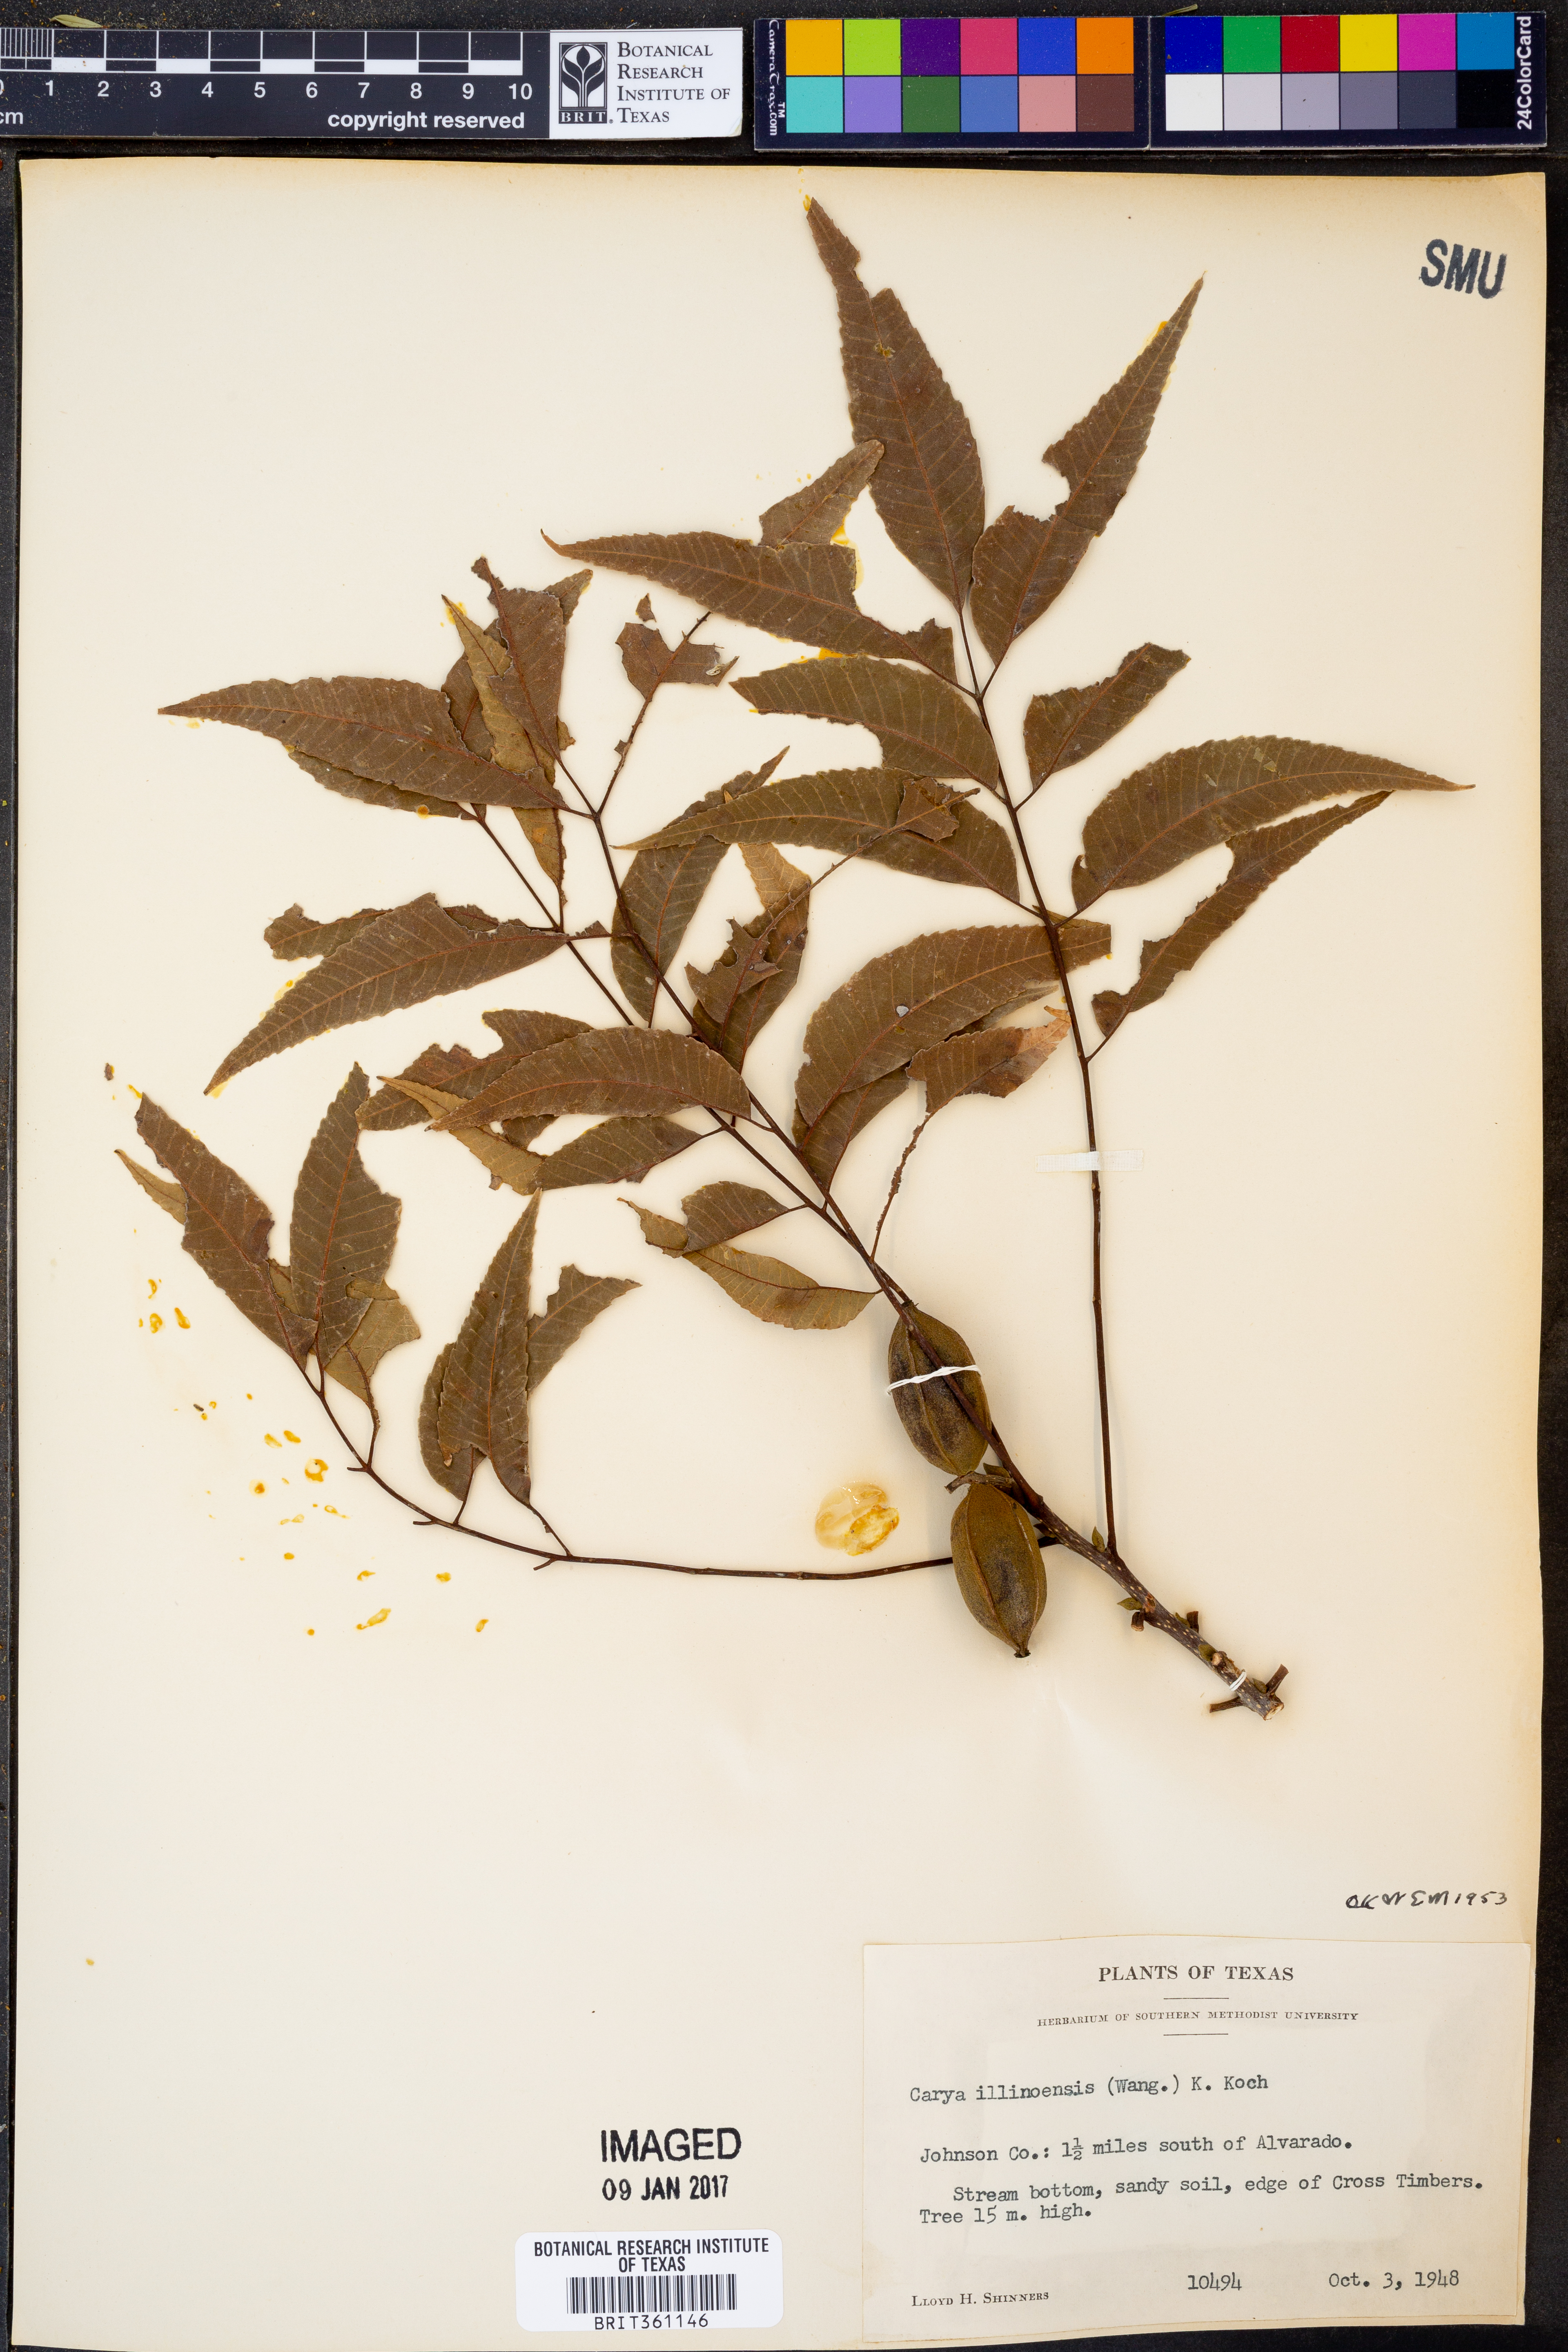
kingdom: Plantae
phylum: Tracheophyta
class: Magnoliopsida
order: Fagales
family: Juglandaceae
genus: Carya
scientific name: Carya illinoinensis
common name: Pecan
